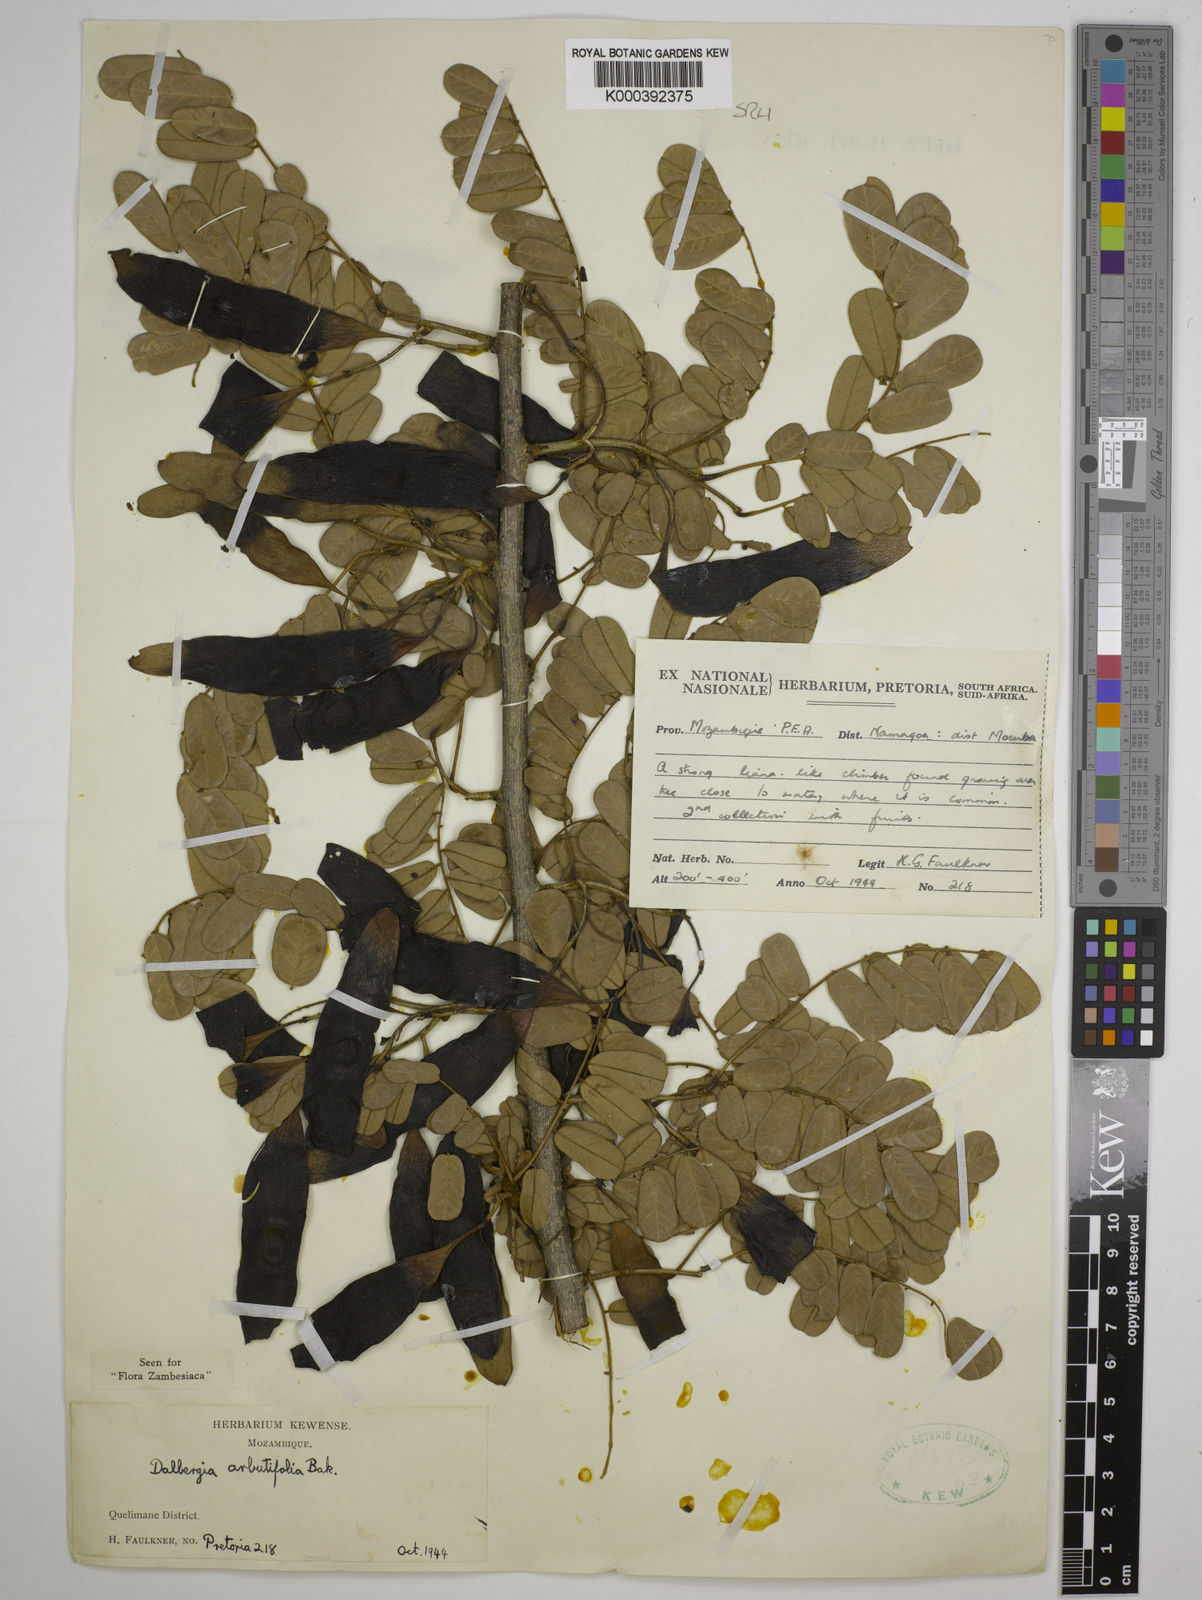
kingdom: Plantae
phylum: Tracheophyta
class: Magnoliopsida
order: Fabales
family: Fabaceae
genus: Dalbergia
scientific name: Dalbergia arbutifolia
